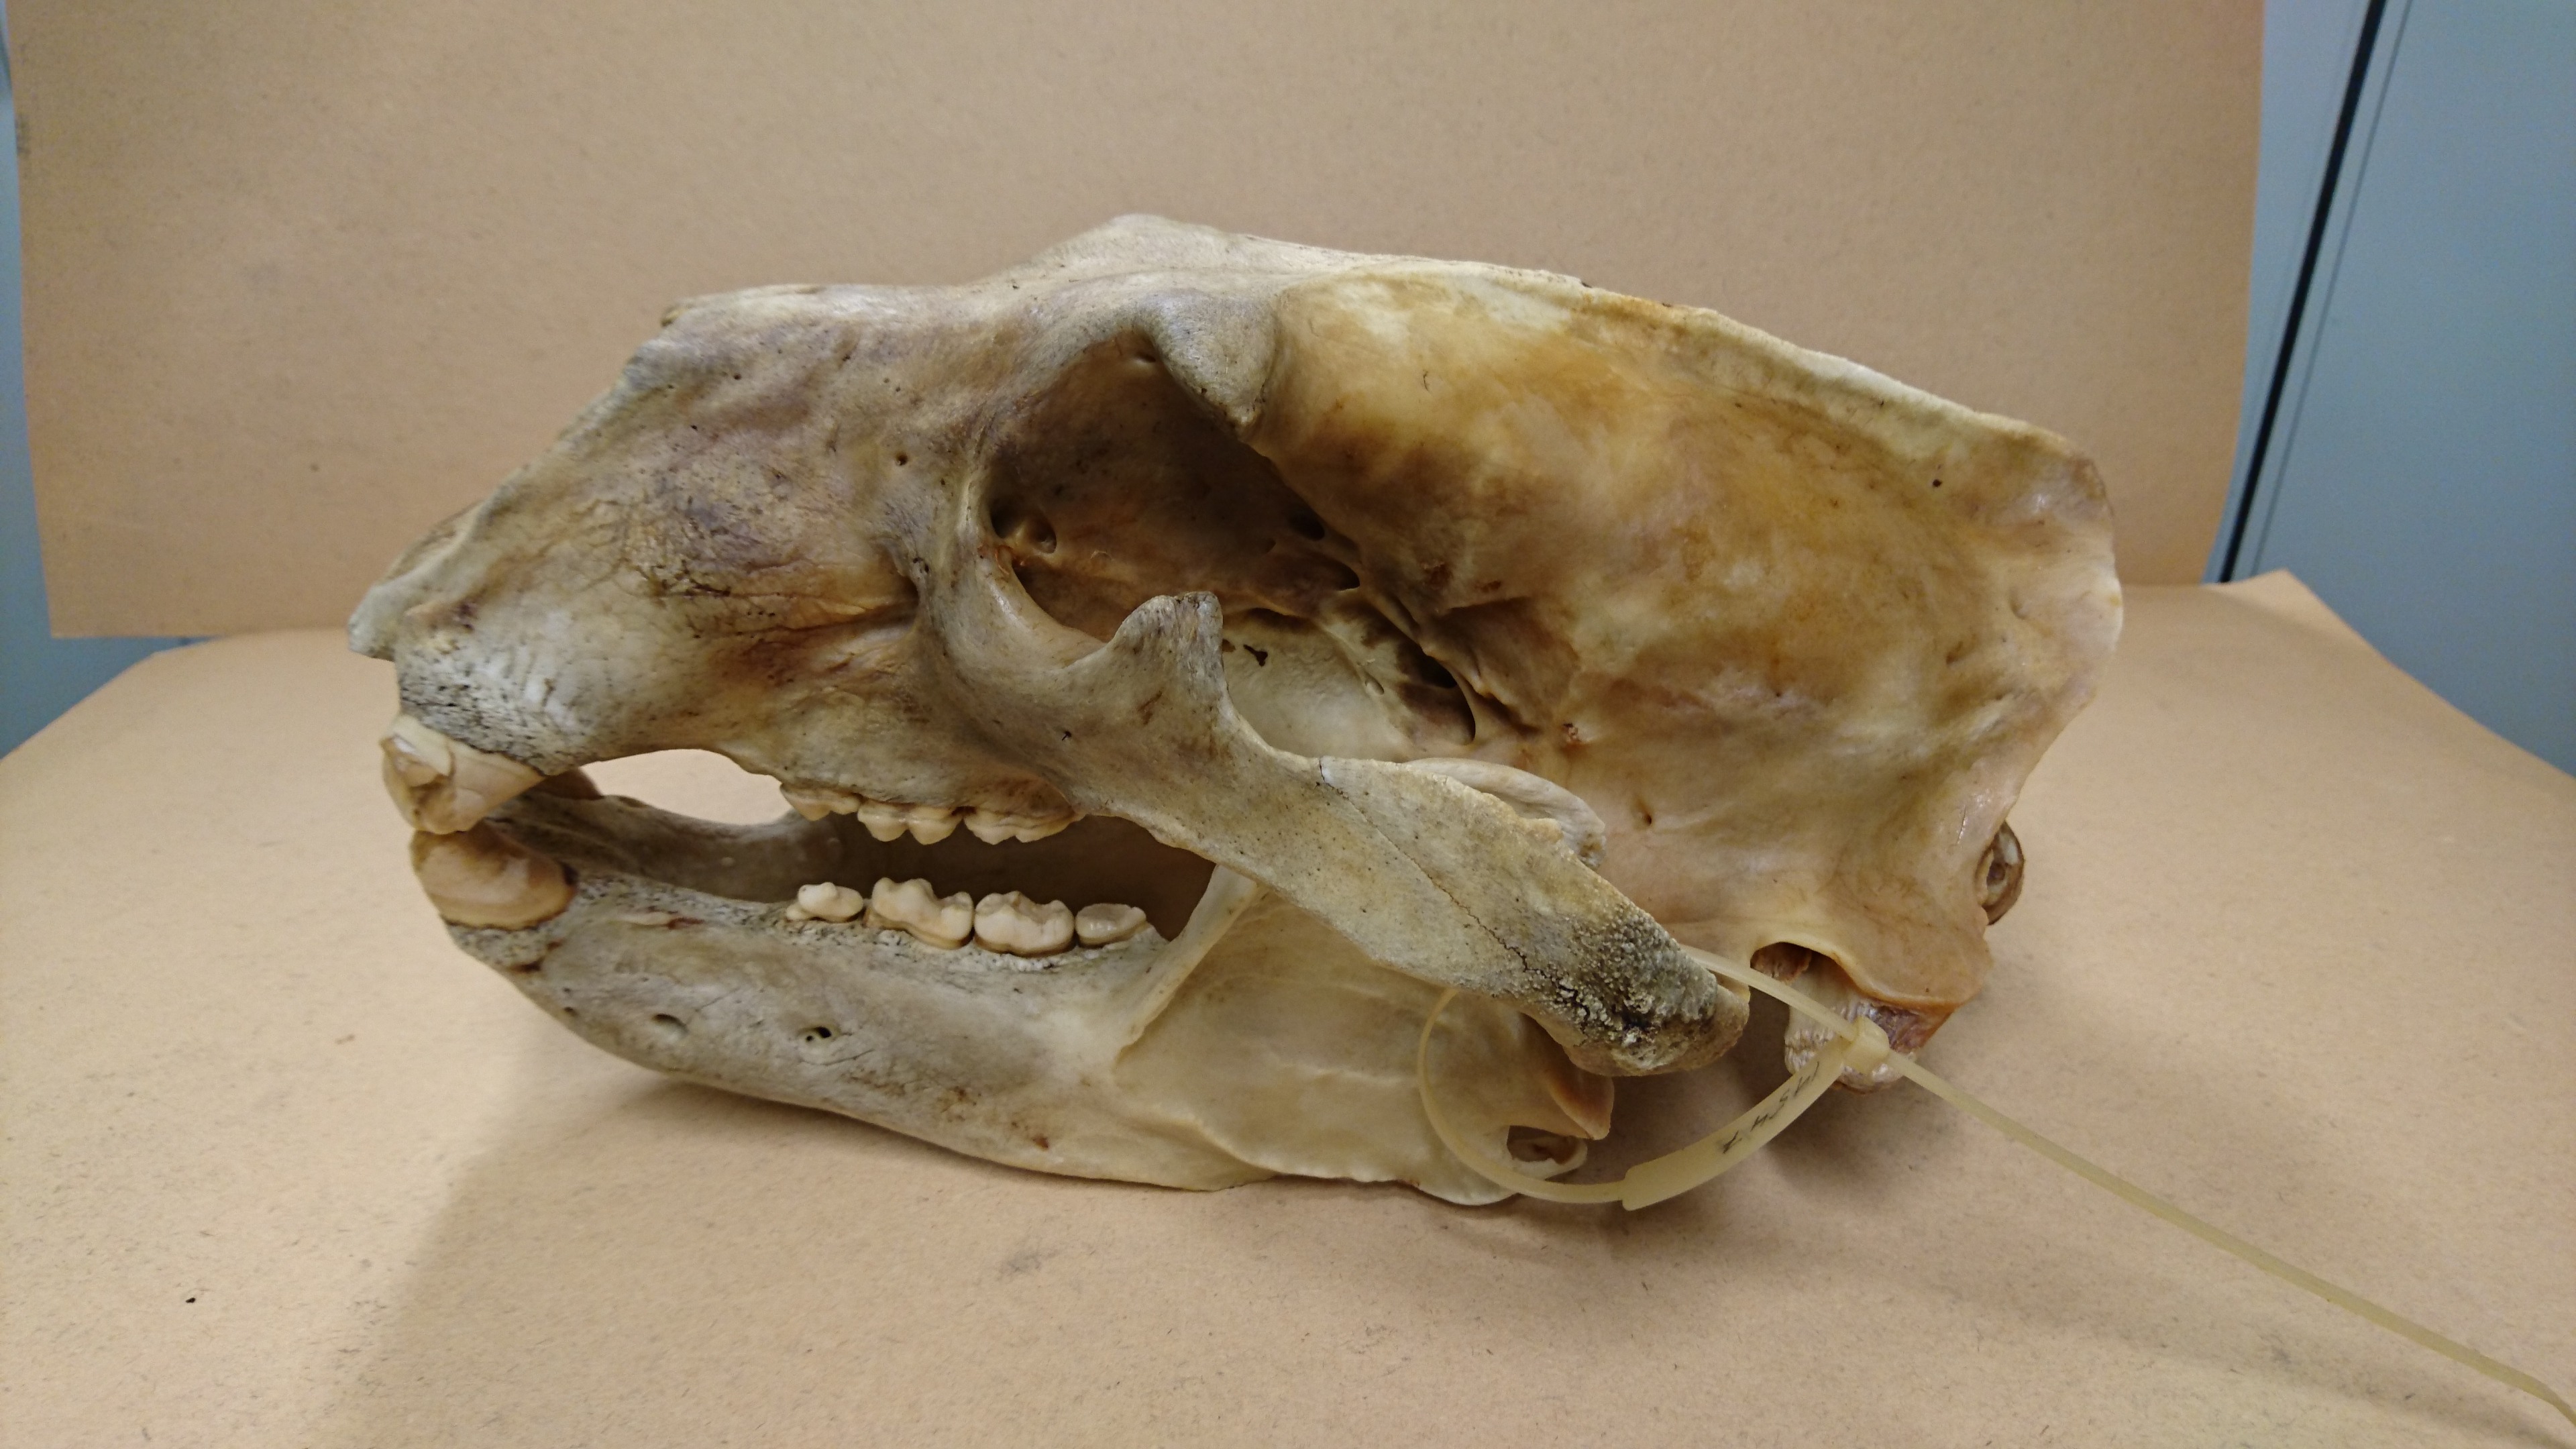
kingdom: Animalia
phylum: Chordata
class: Mammalia
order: Carnivora
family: Ursidae
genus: Ursus
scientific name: Ursus maritimus
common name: Polar bear
